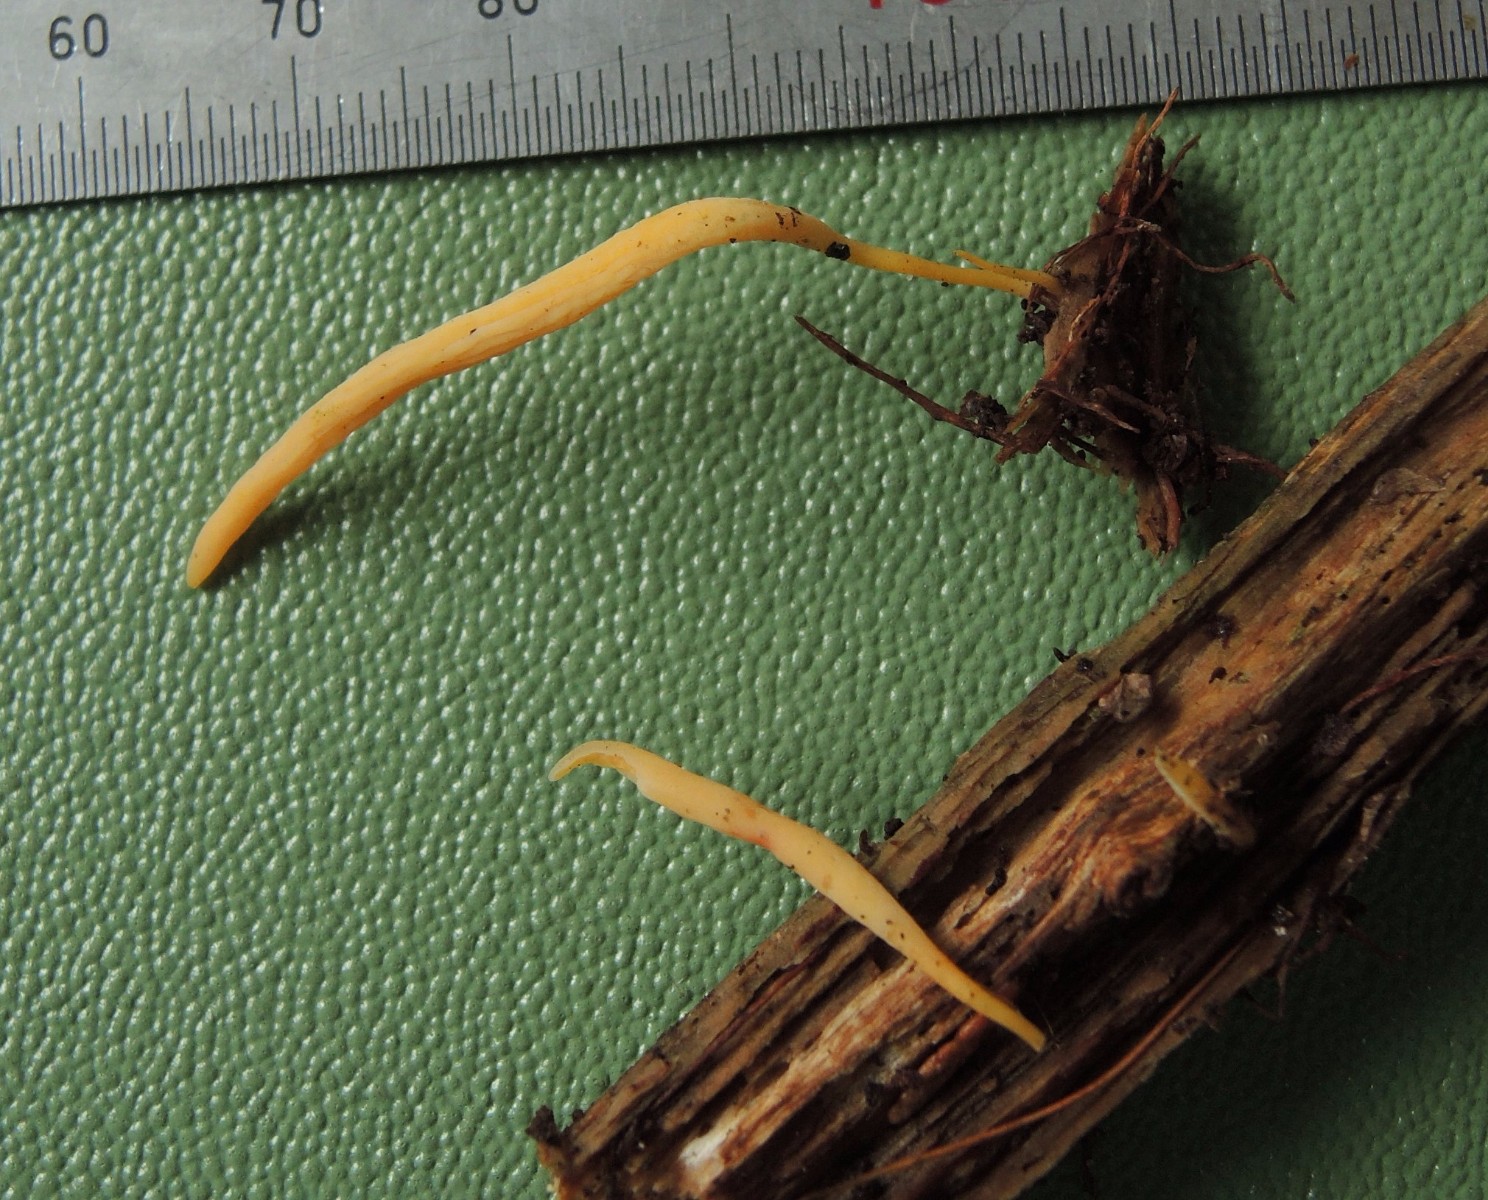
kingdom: Fungi
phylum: Basidiomycota
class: Agaricomycetes
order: Agaricales
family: Clavariaceae
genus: Clavulinopsis
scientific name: Clavulinopsis luteoalba
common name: abrikos-køllesvamp
